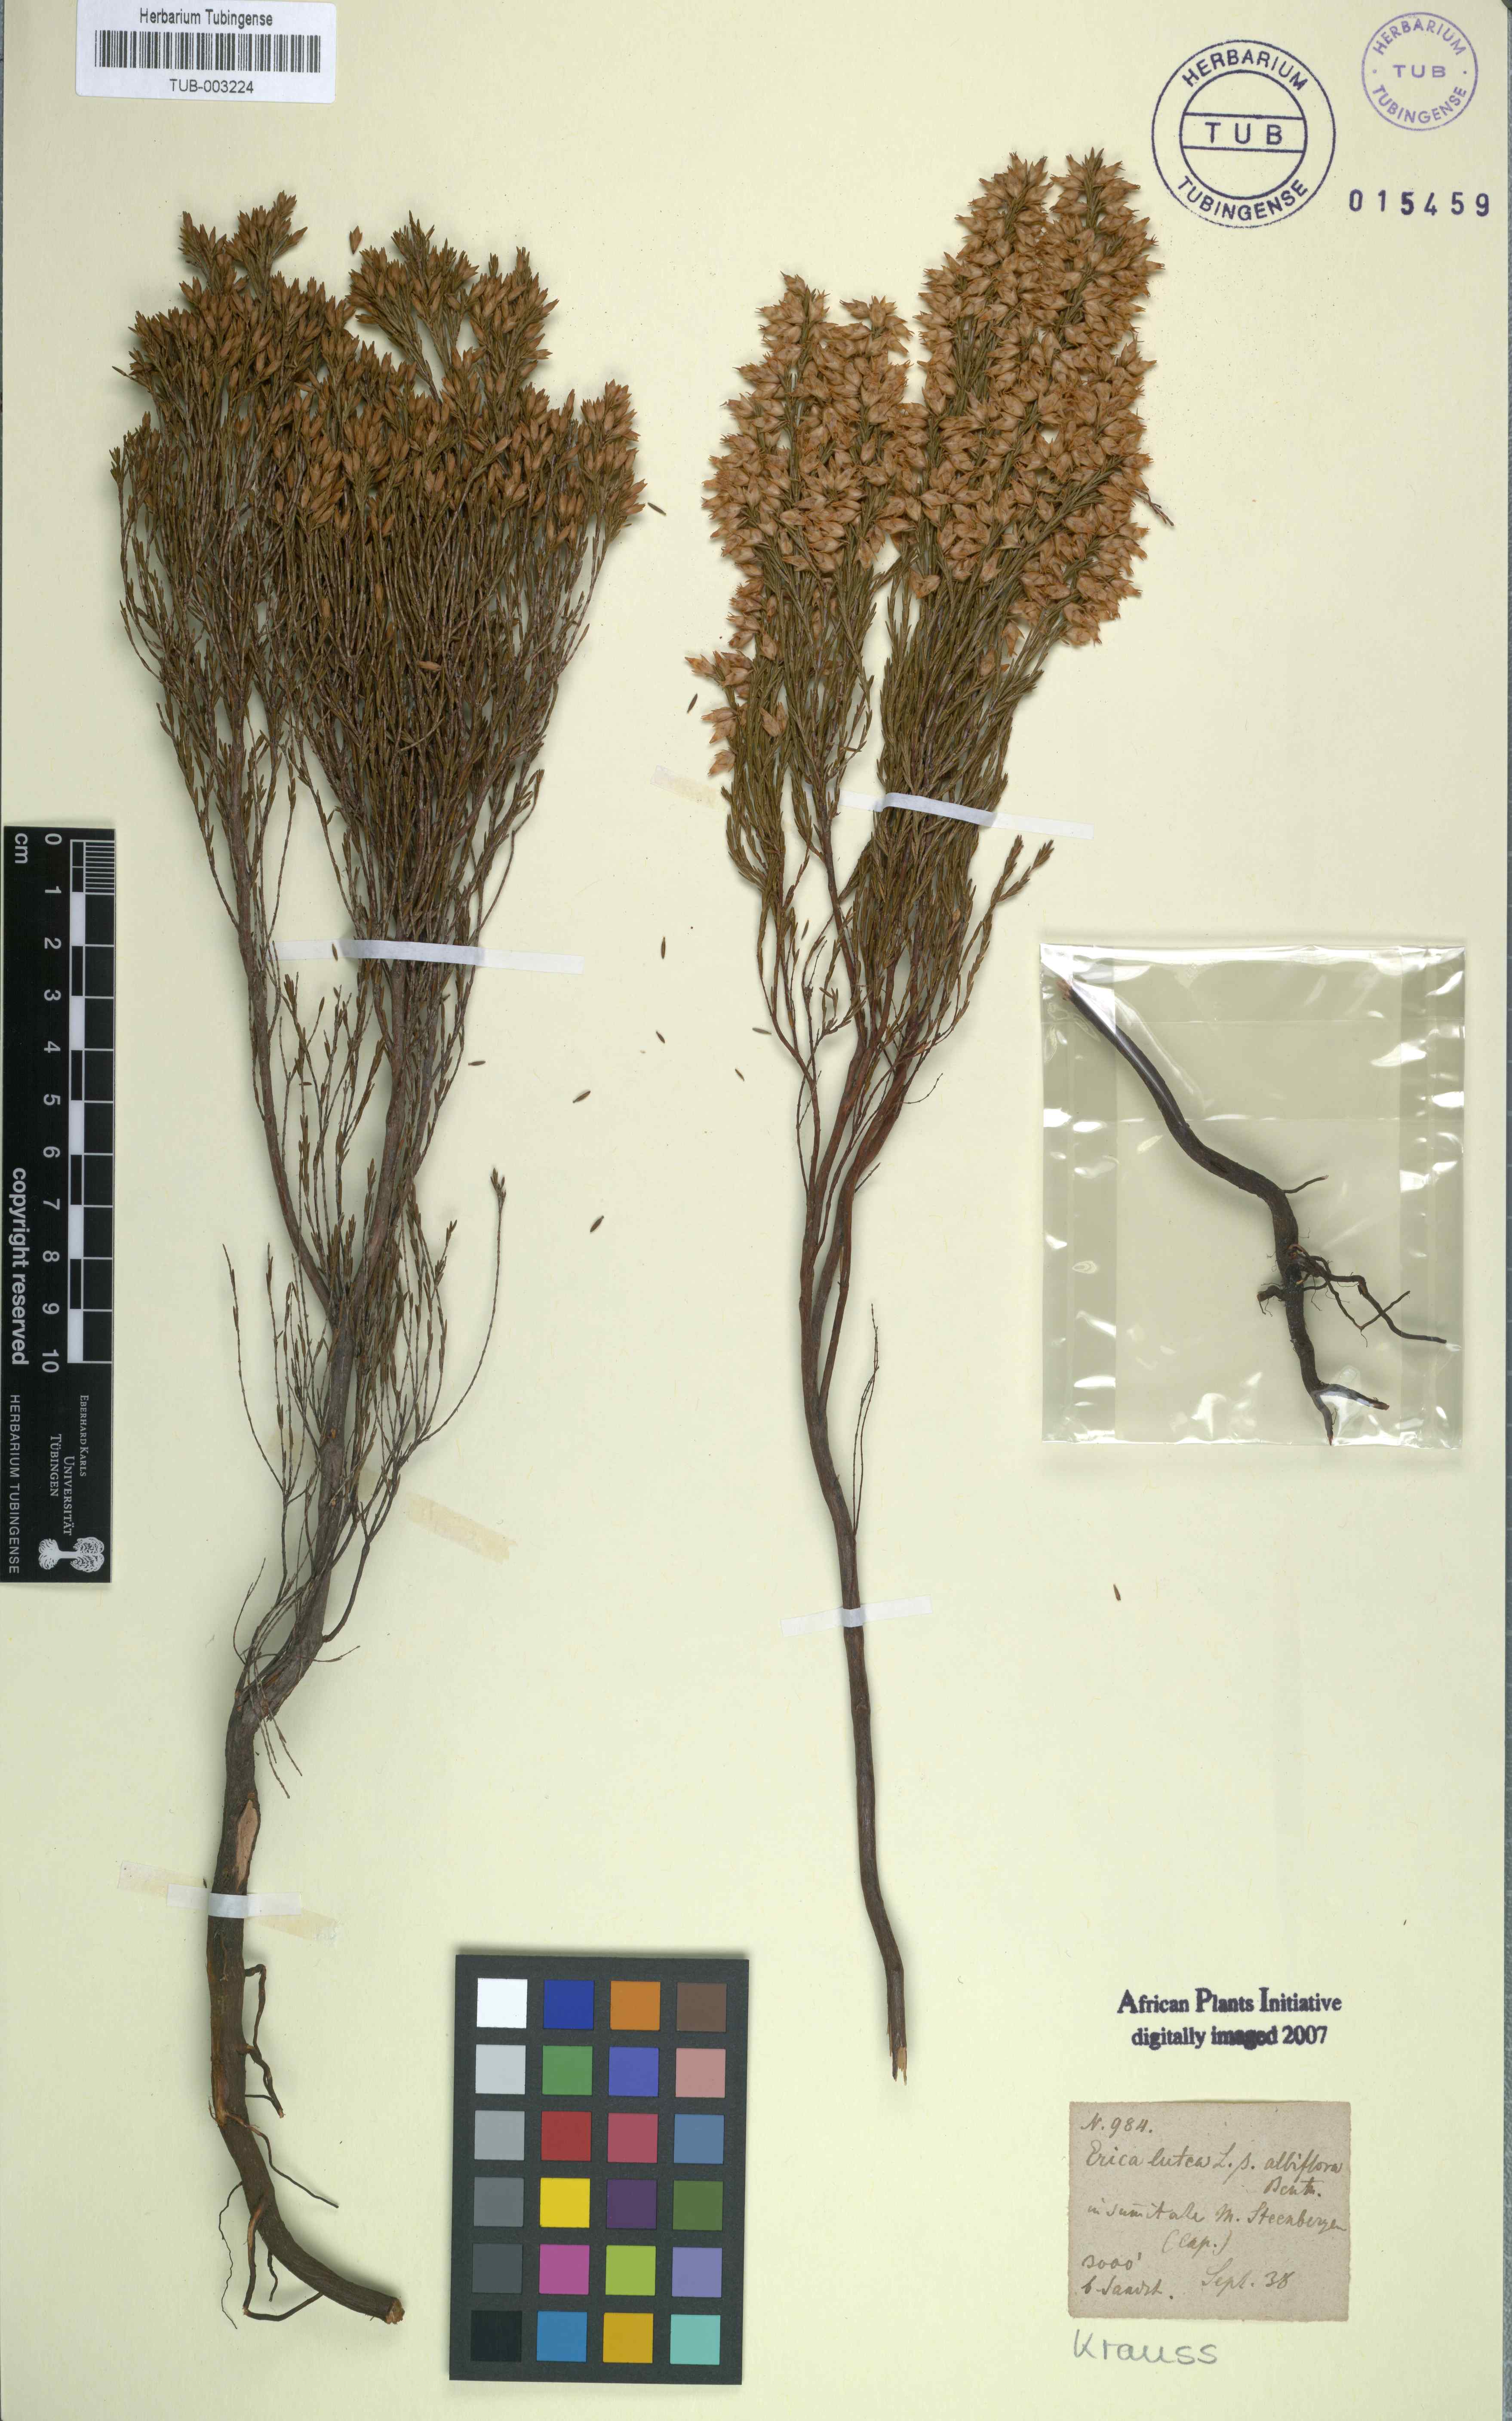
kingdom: Plantae
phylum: Tracheophyta
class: Magnoliopsida
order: Ericales
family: Ericaceae
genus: Erica
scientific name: Erica lutea
